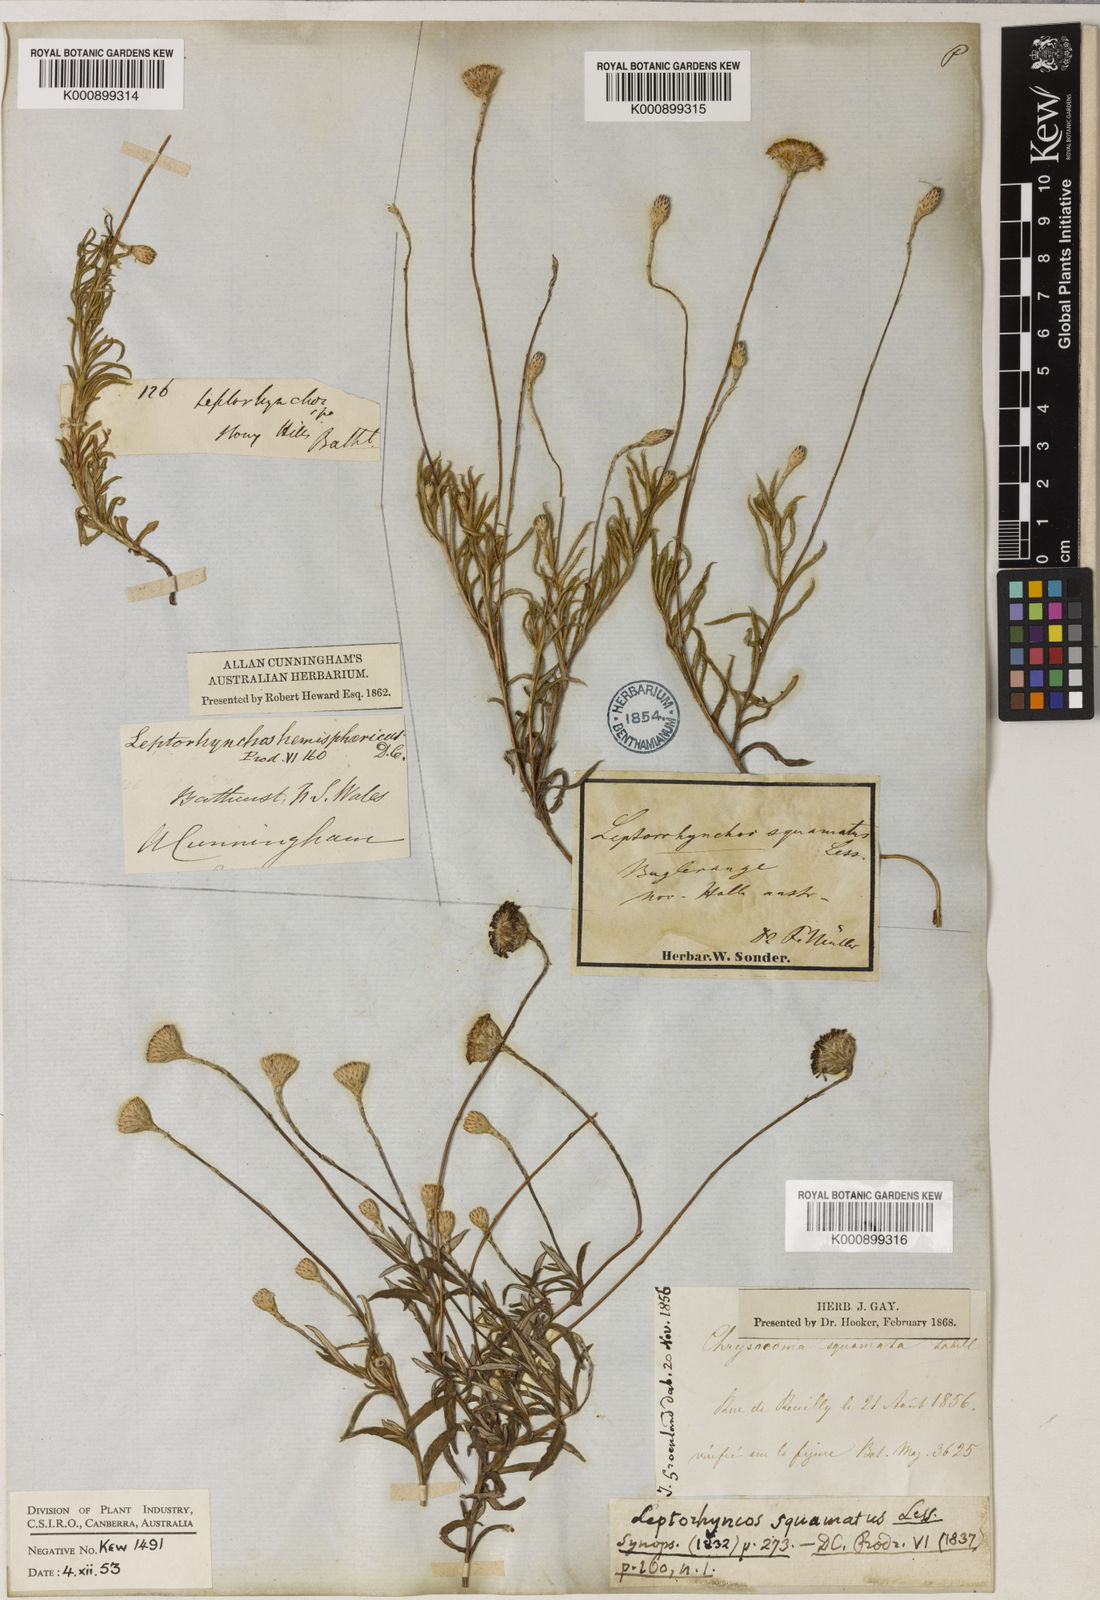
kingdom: Plantae
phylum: Tracheophyta
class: Magnoliopsida
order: Asterales
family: Asteraceae
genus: Leptorhynchos
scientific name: Leptorhynchos squamatus
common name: Scaly-buttons
